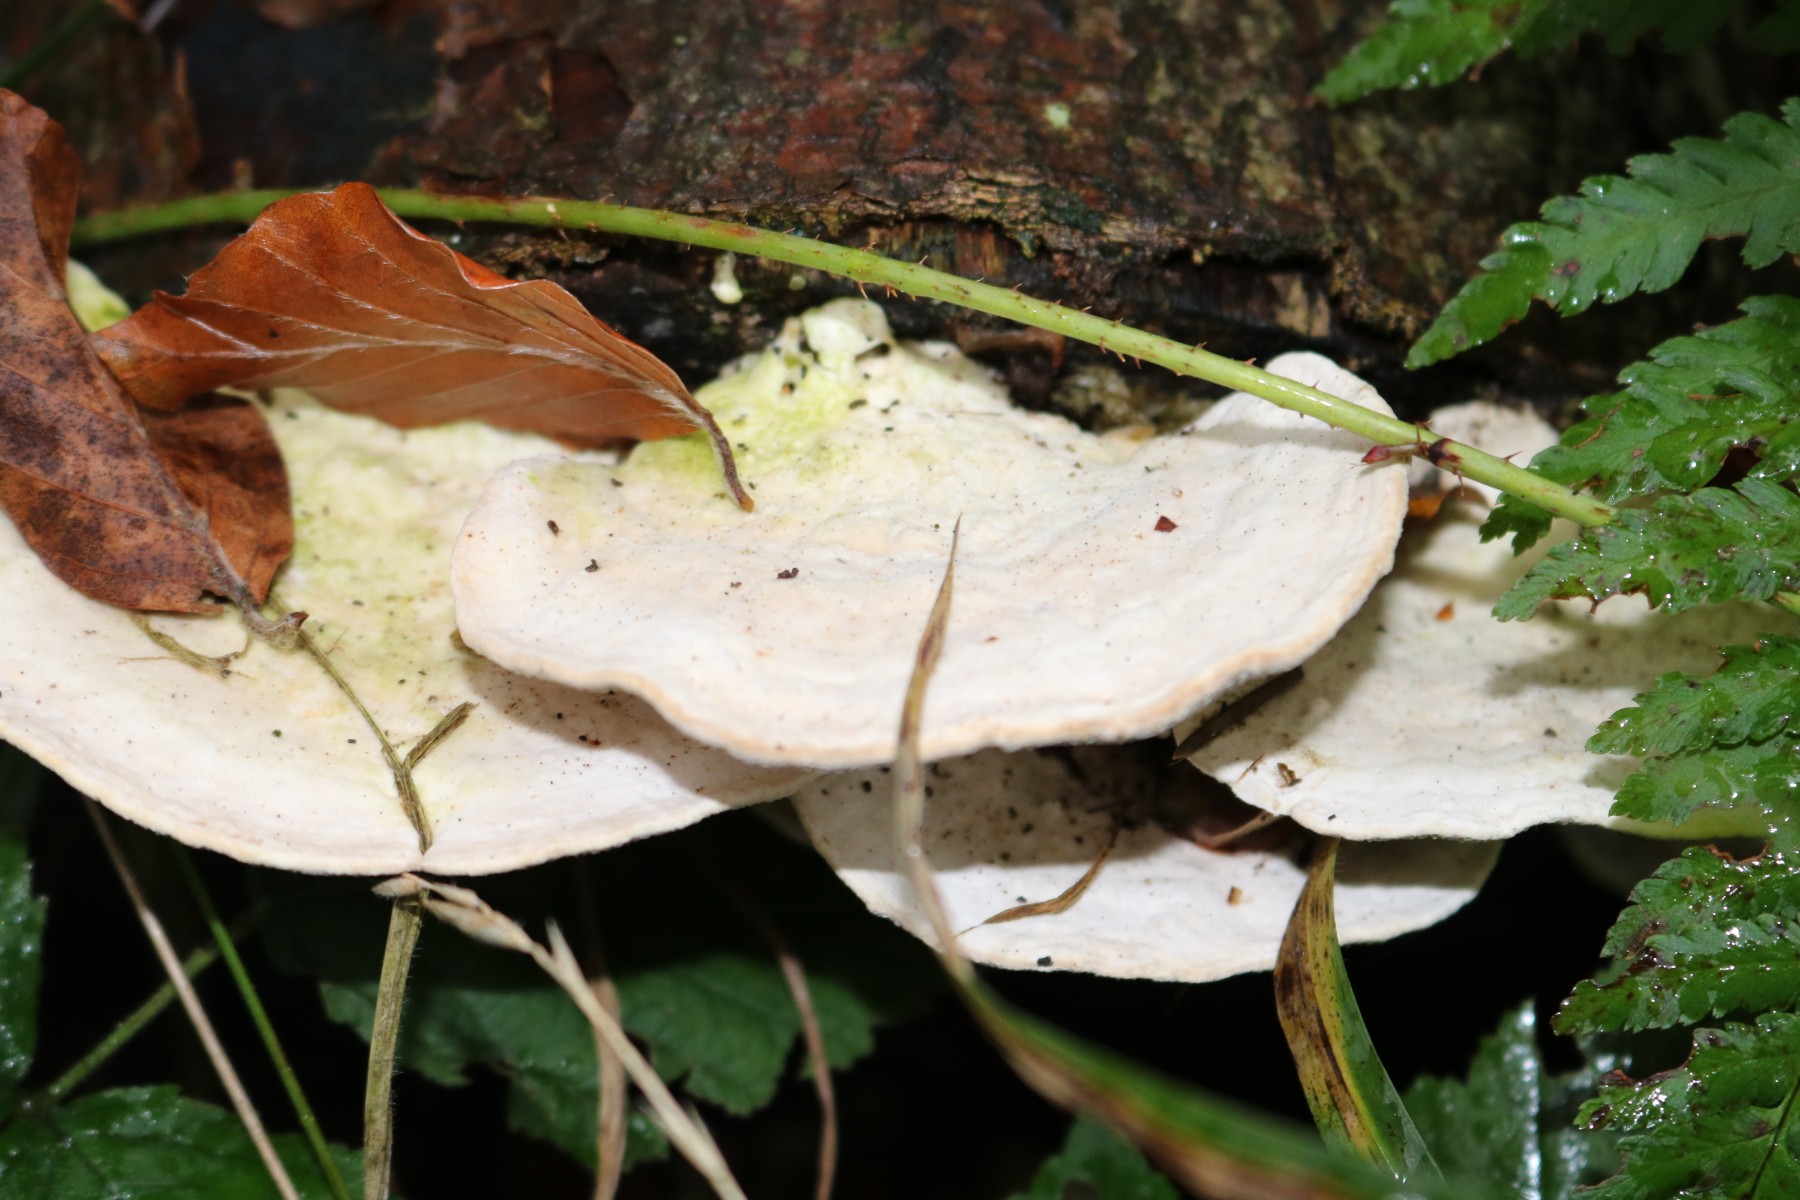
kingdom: Fungi
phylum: Basidiomycota
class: Agaricomycetes
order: Polyporales
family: Polyporaceae
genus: Trametes
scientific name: Trametes gibbosa
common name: puklet læderporesvamp
